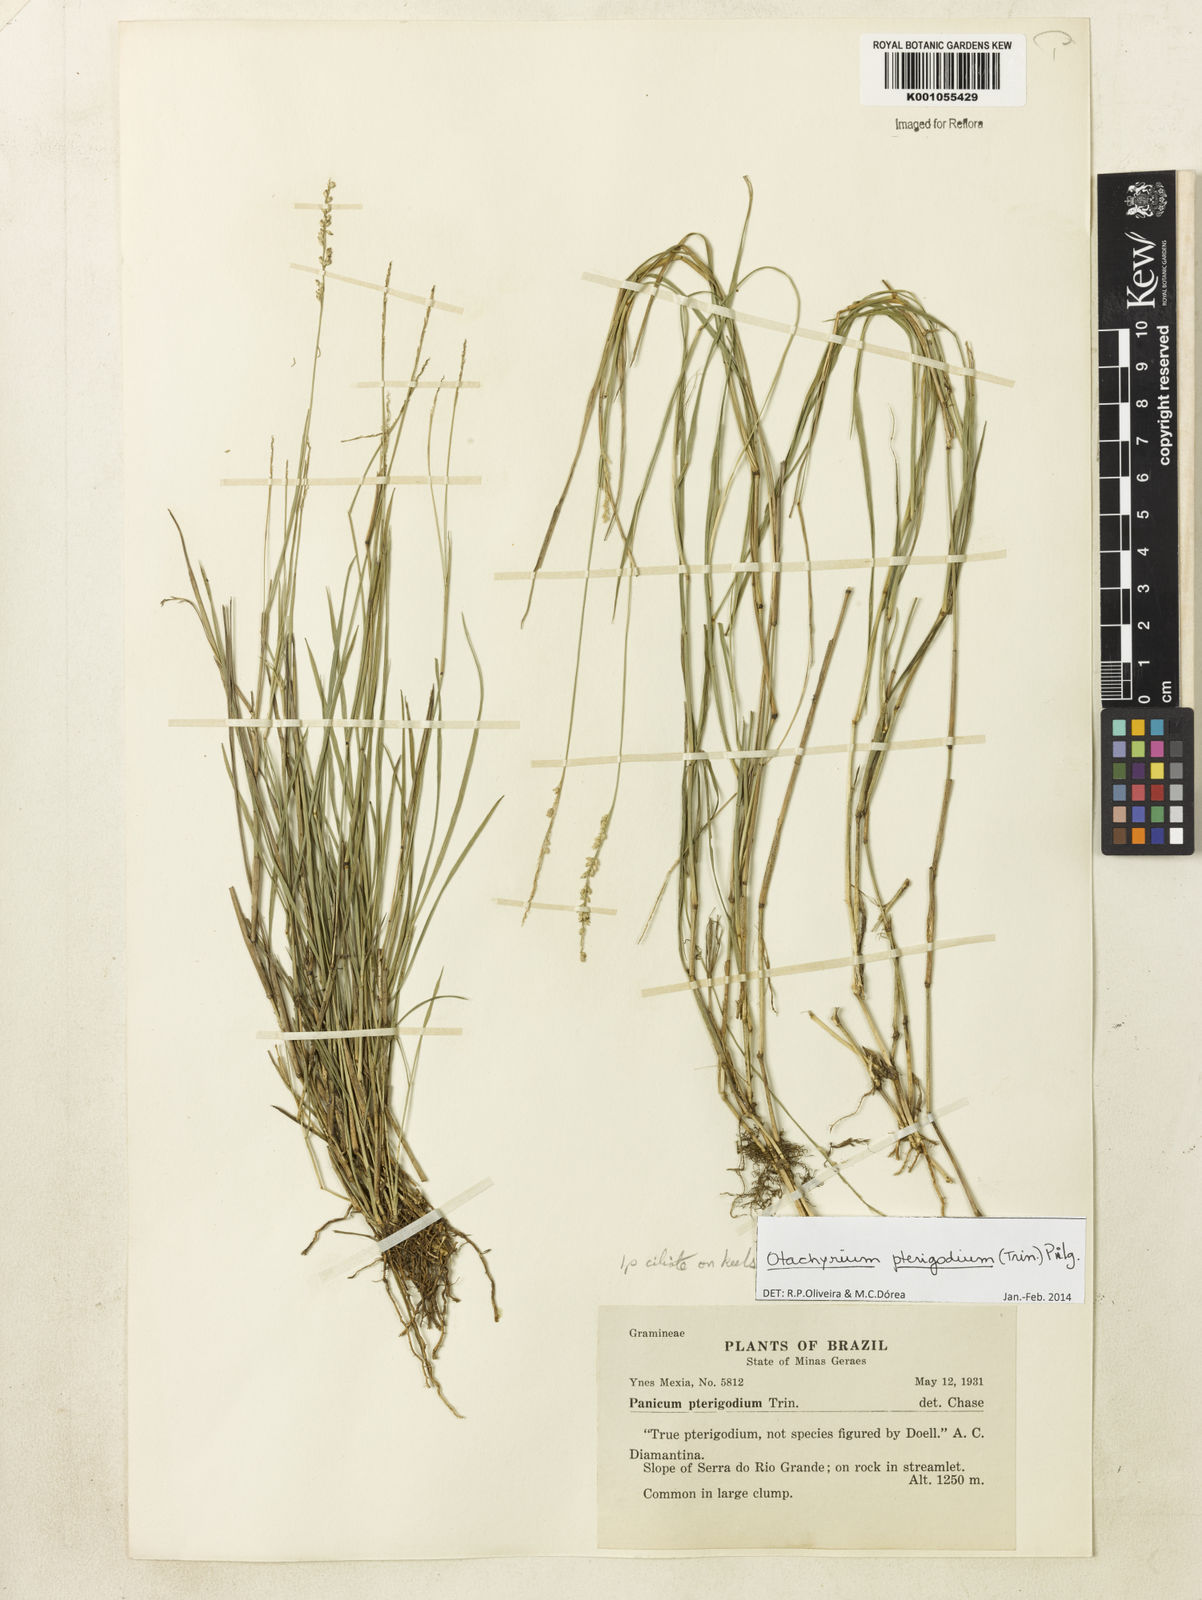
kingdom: Plantae
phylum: Tracheophyta
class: Liliopsida
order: Poales
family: Poaceae
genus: Otachyrium
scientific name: Otachyrium pterigodium
